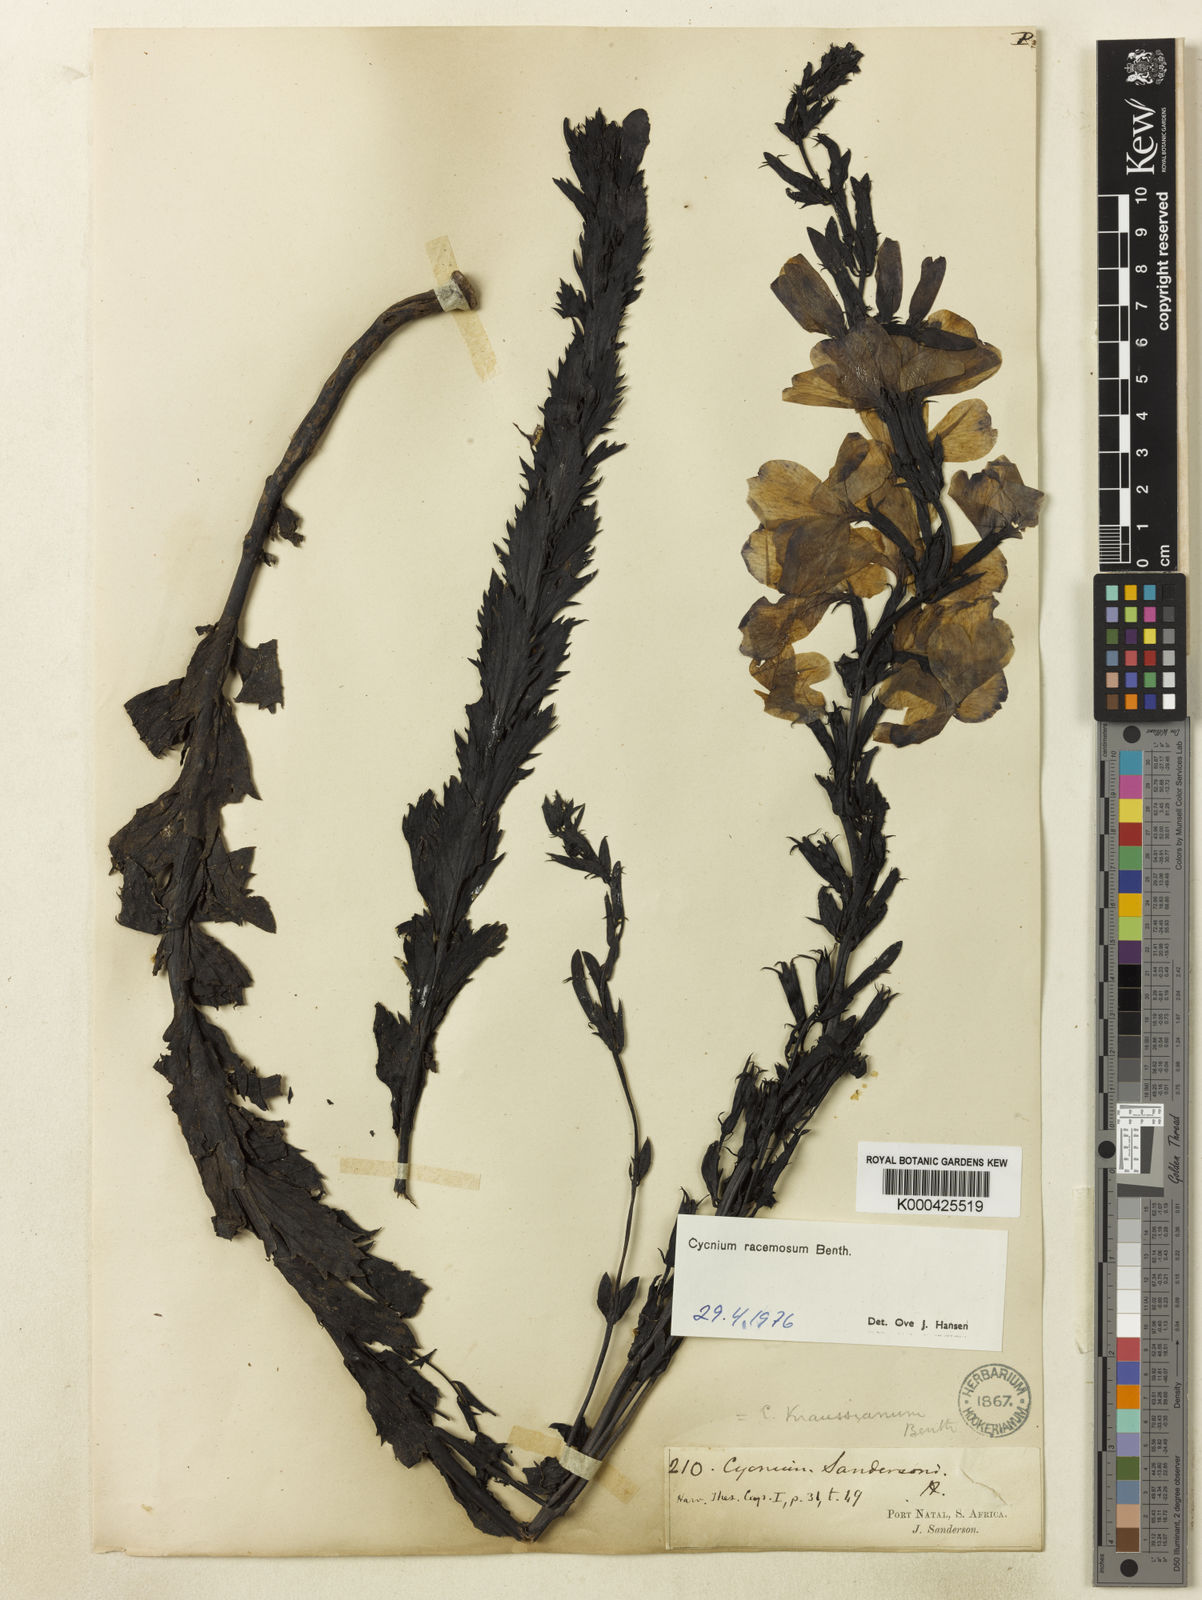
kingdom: Plantae
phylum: Tracheophyta
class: Magnoliopsida
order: Lamiales
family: Orobanchaceae
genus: Cycnium
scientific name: Cycnium racemosum
